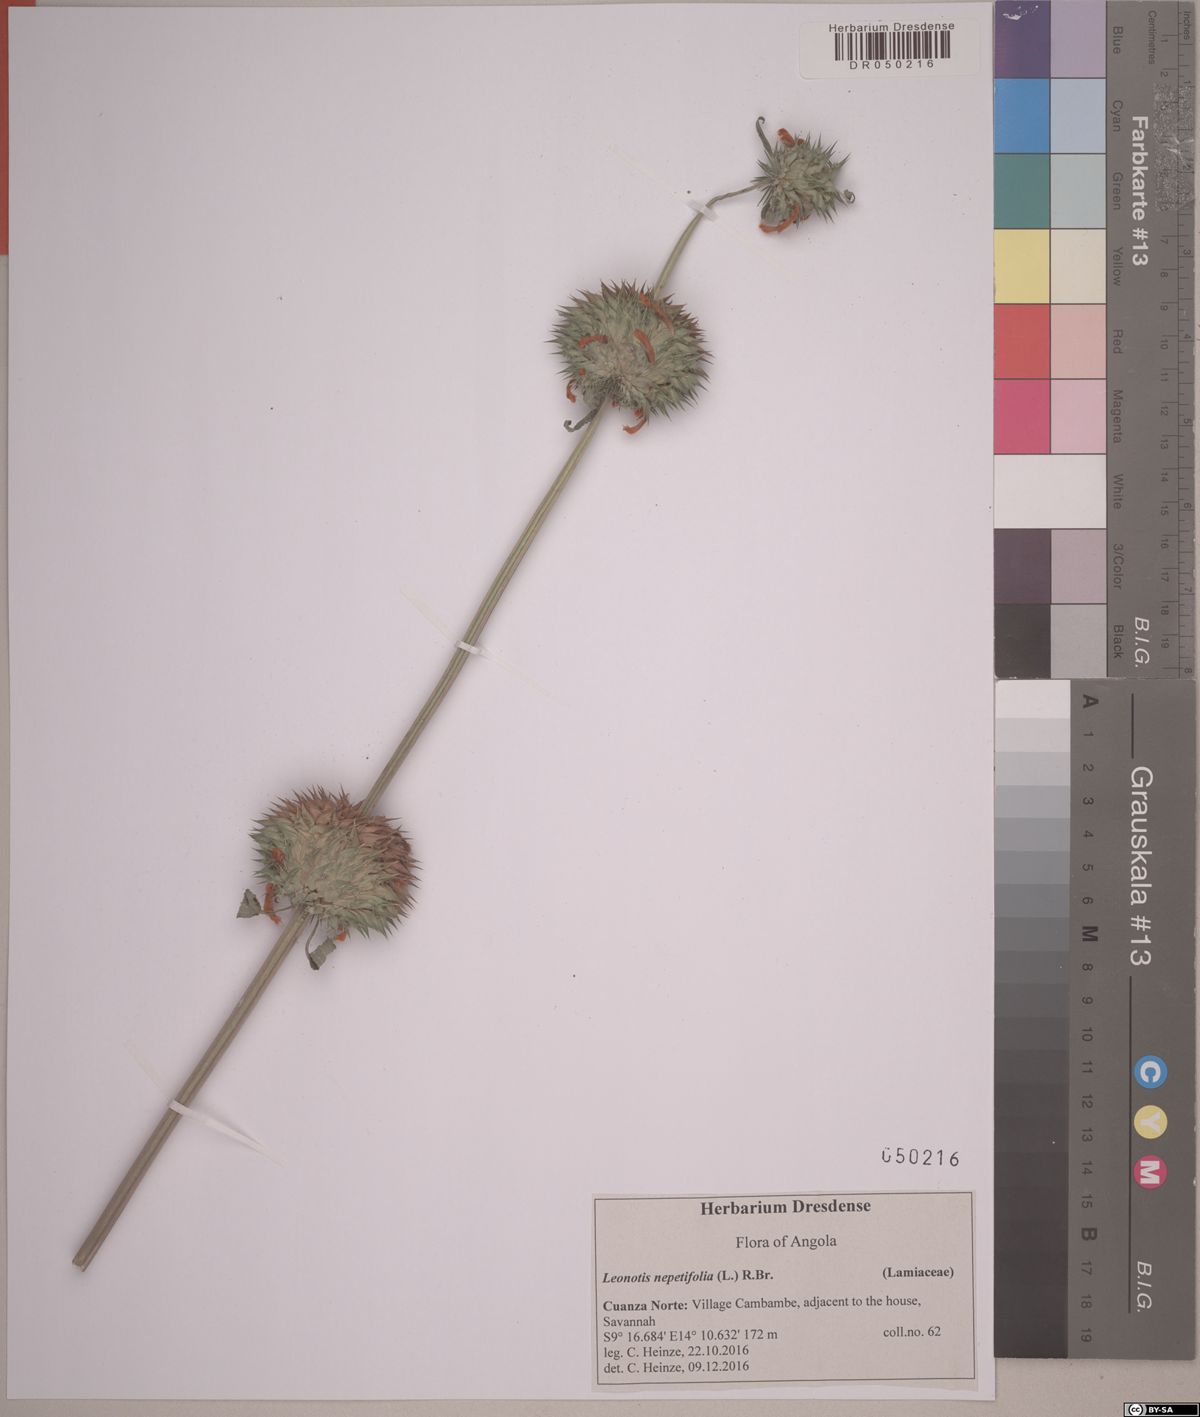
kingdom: Plantae
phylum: Tracheophyta
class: Magnoliopsida
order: Lamiales
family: Lamiaceae
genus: Leonotis
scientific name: Leonotis nepetifolia
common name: Christmas candlestick
